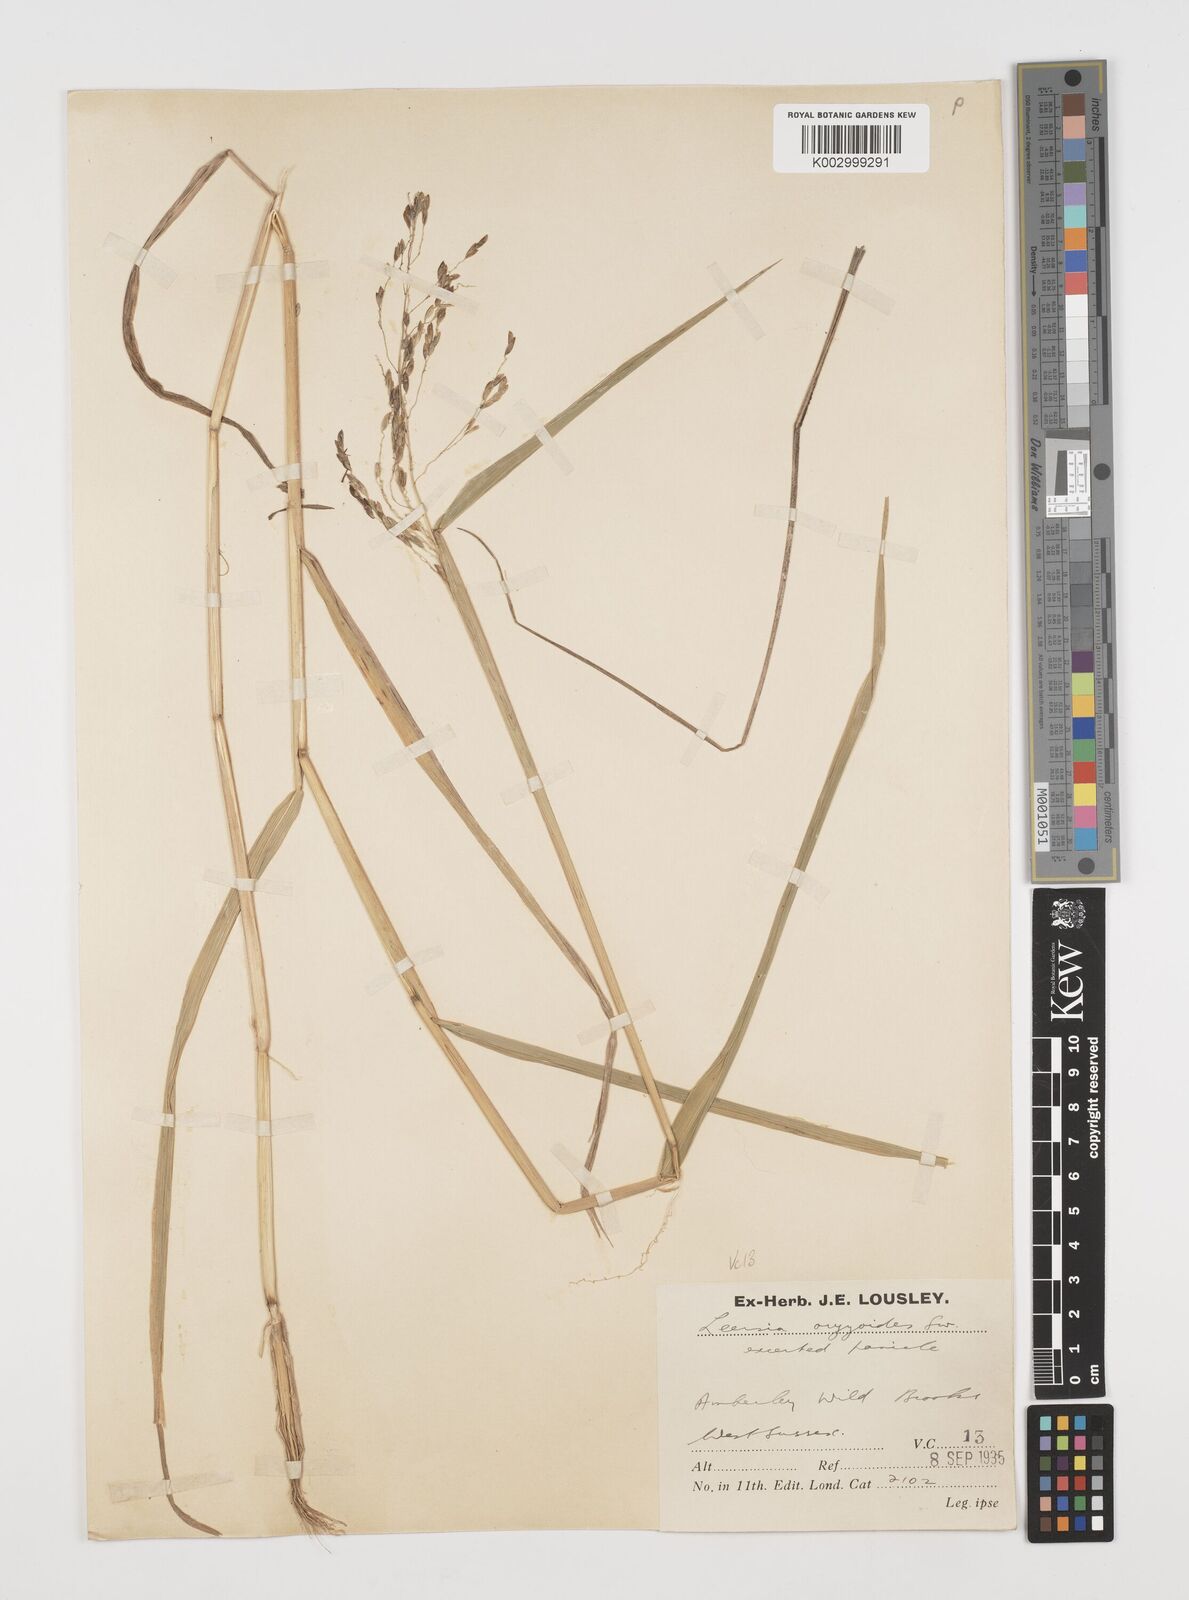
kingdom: Plantae
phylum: Tracheophyta
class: Liliopsida
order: Poales
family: Poaceae
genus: Leersia
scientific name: Leersia oryzoides
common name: Cut-grass
